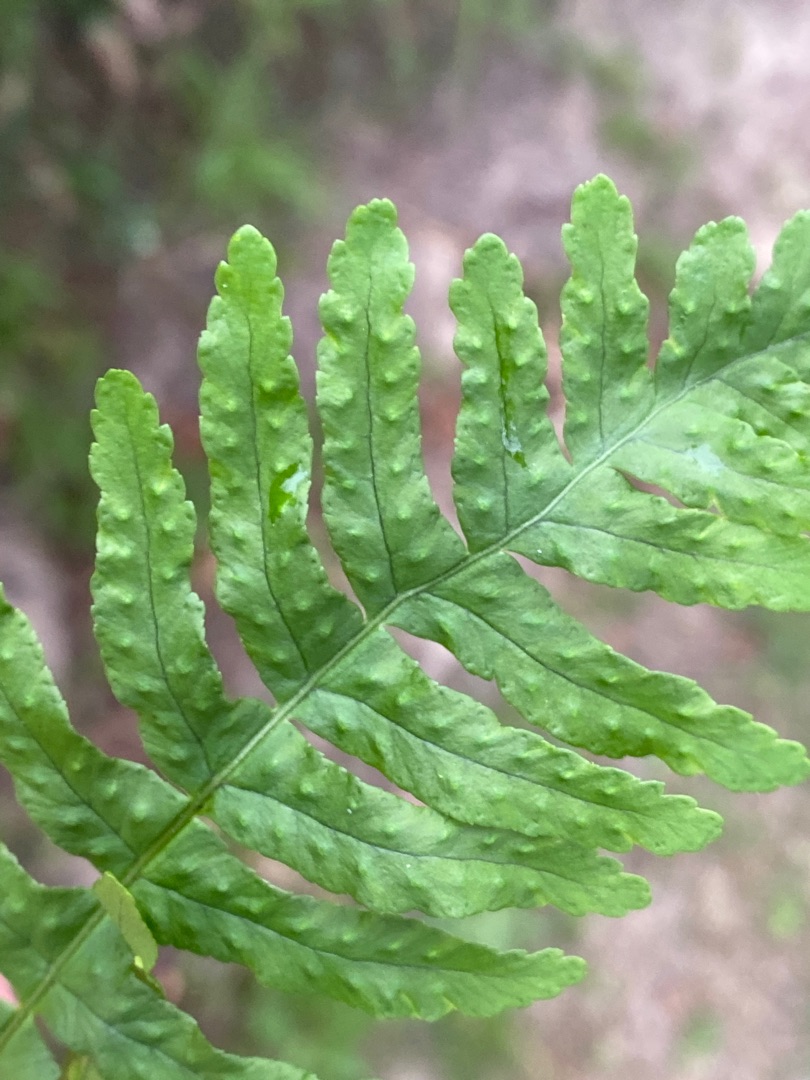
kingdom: Plantae
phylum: Tracheophyta
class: Polypodiopsida
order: Polypodiales
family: Polypodiaceae
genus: Polypodium
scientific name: Polypodium vulgare
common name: Almindelig engelsød
